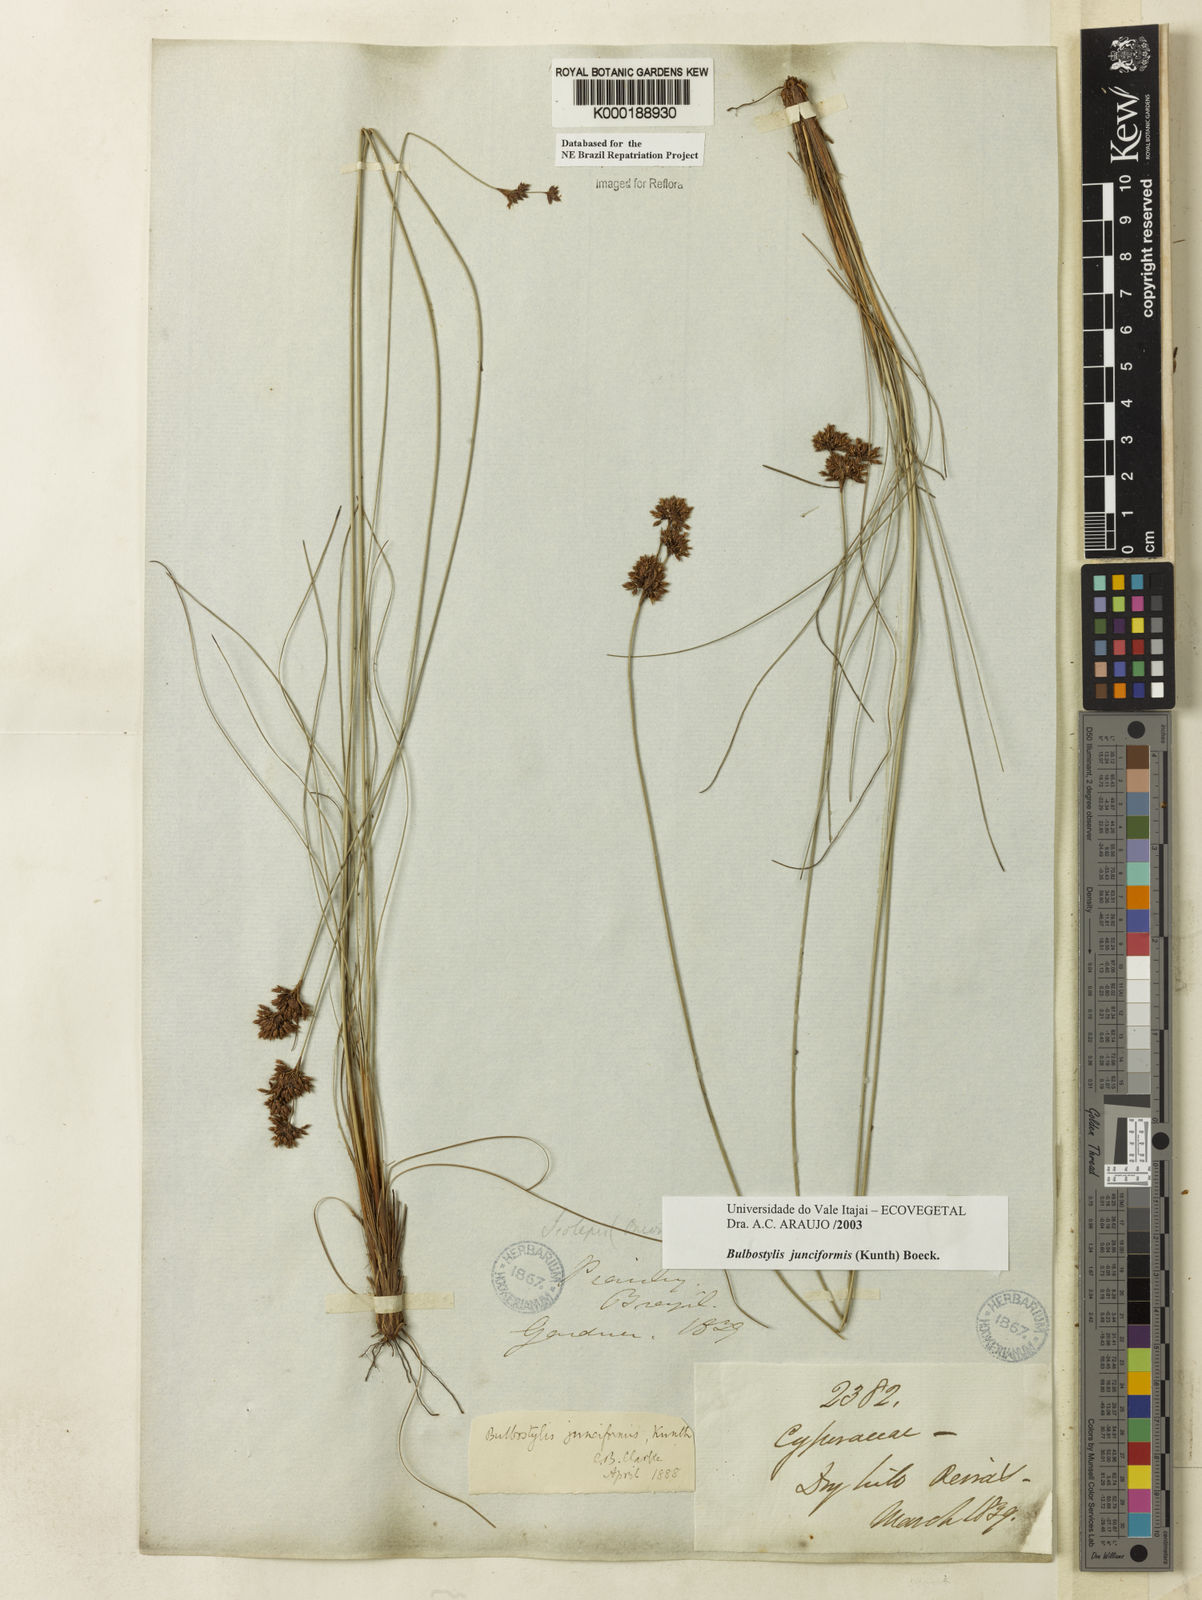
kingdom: Plantae
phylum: Tracheophyta
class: Liliopsida
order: Poales
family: Cyperaceae
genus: Bulbostylis
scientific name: Bulbostylis
